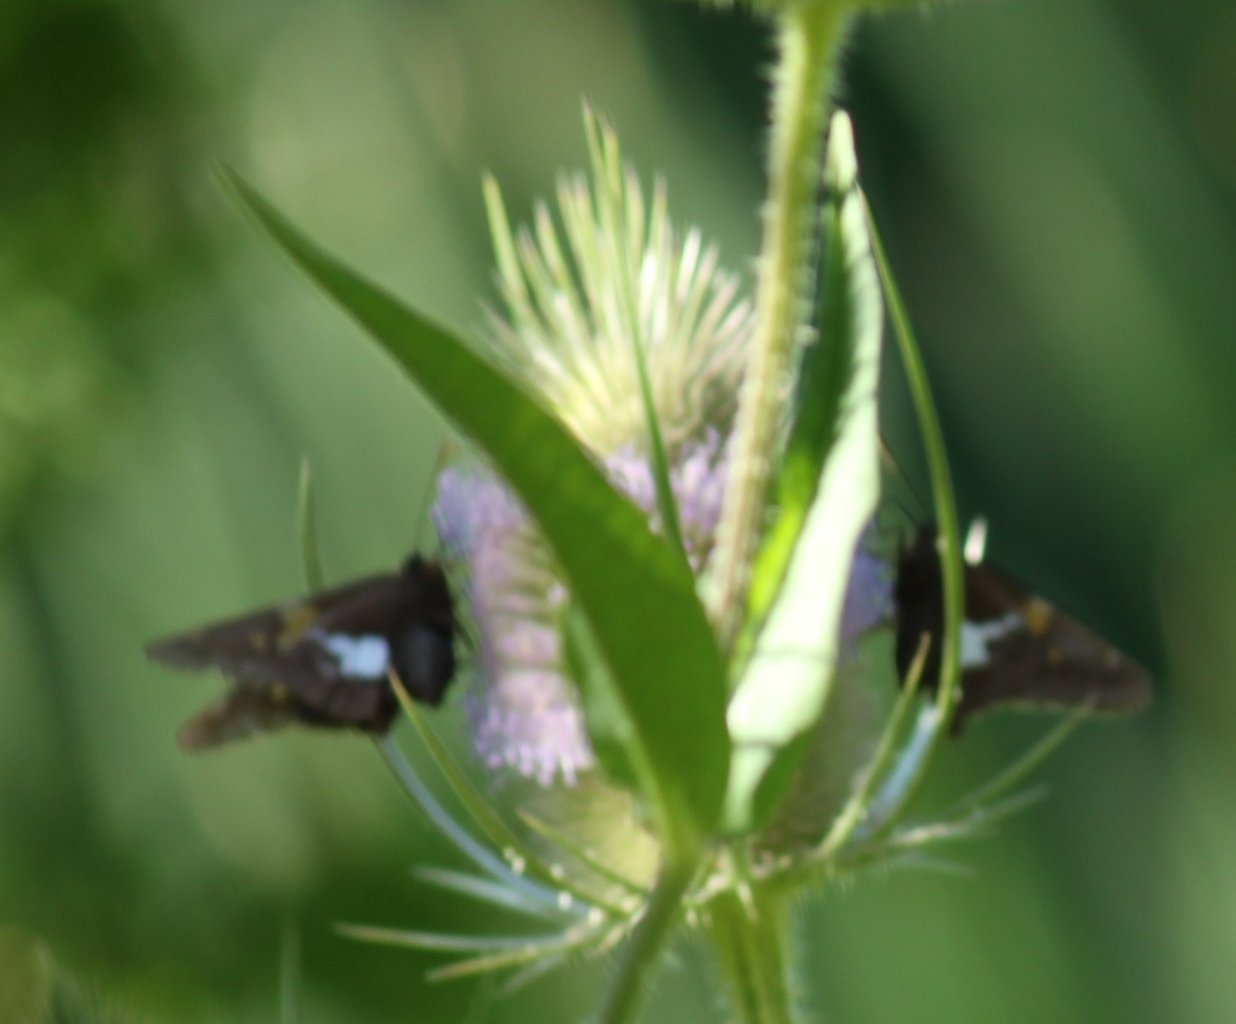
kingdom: Animalia
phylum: Arthropoda
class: Insecta
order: Lepidoptera
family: Hesperiidae
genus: Epargyreus
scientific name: Epargyreus clarus
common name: Silver-spotted Skipper
